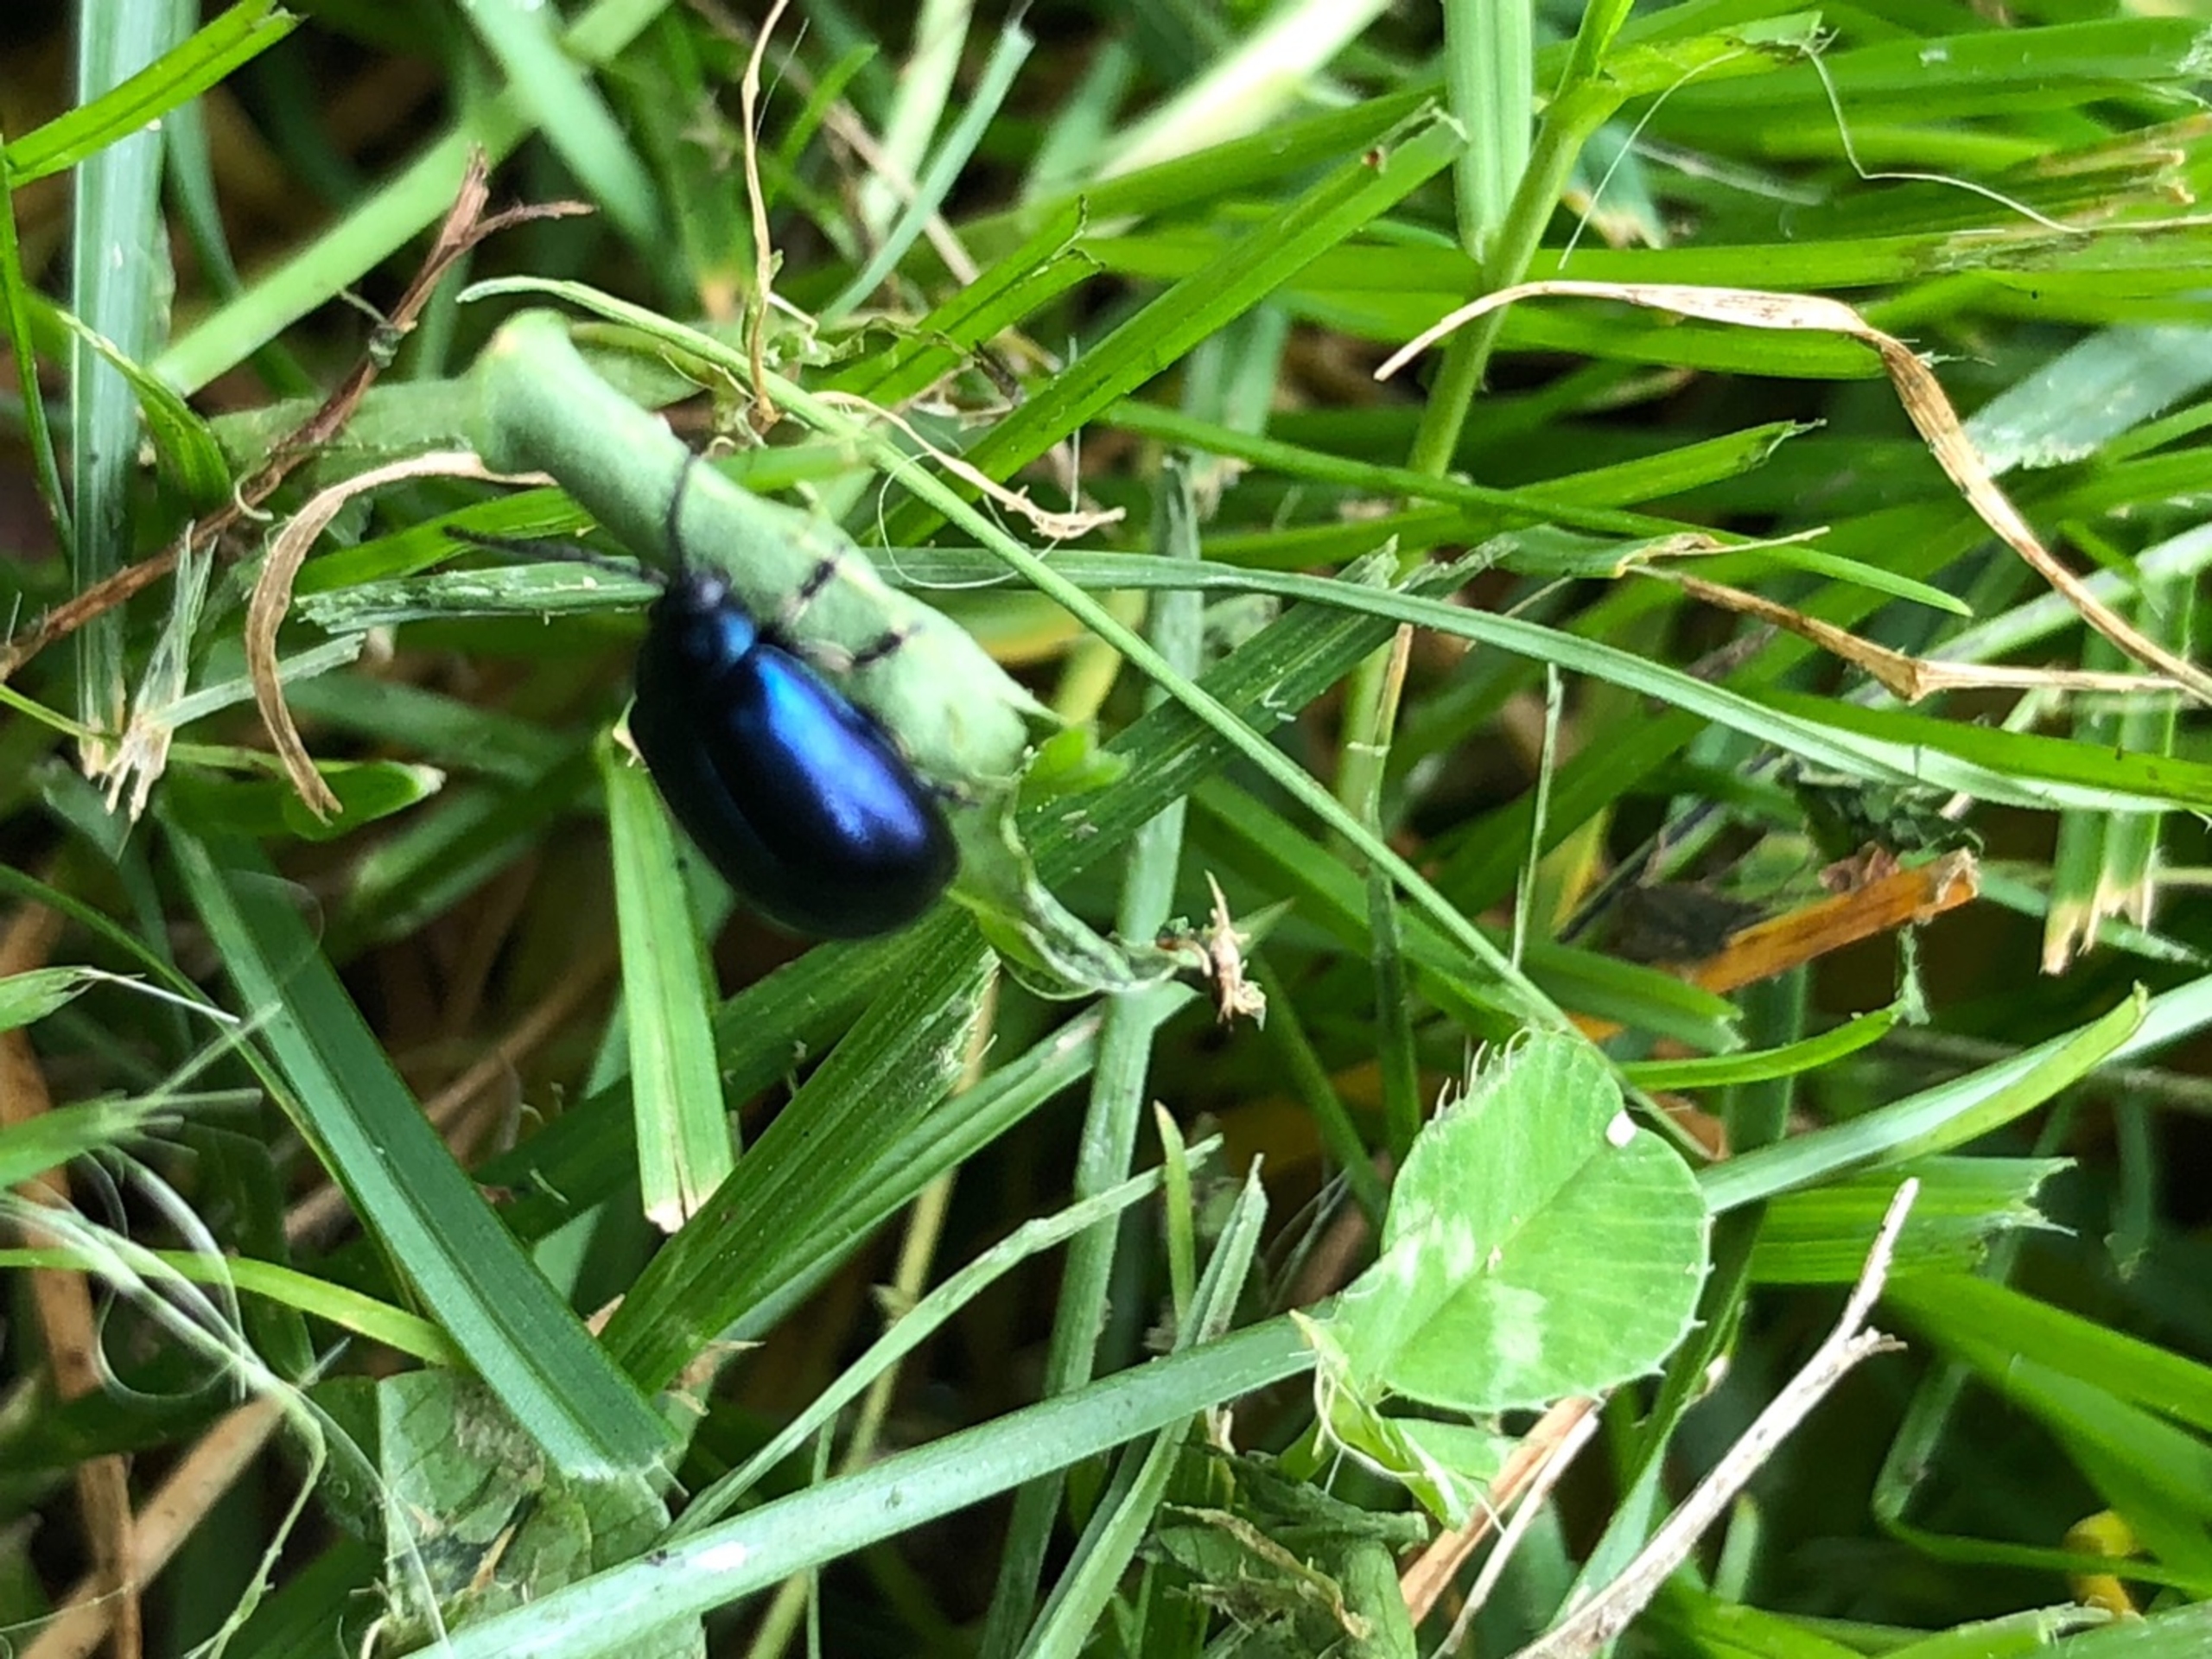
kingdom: Animalia
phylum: Arthropoda
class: Insecta
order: Coleoptera
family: Chrysomelidae
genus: Agelastica
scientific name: Agelastica alni
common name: Ellebladbille
